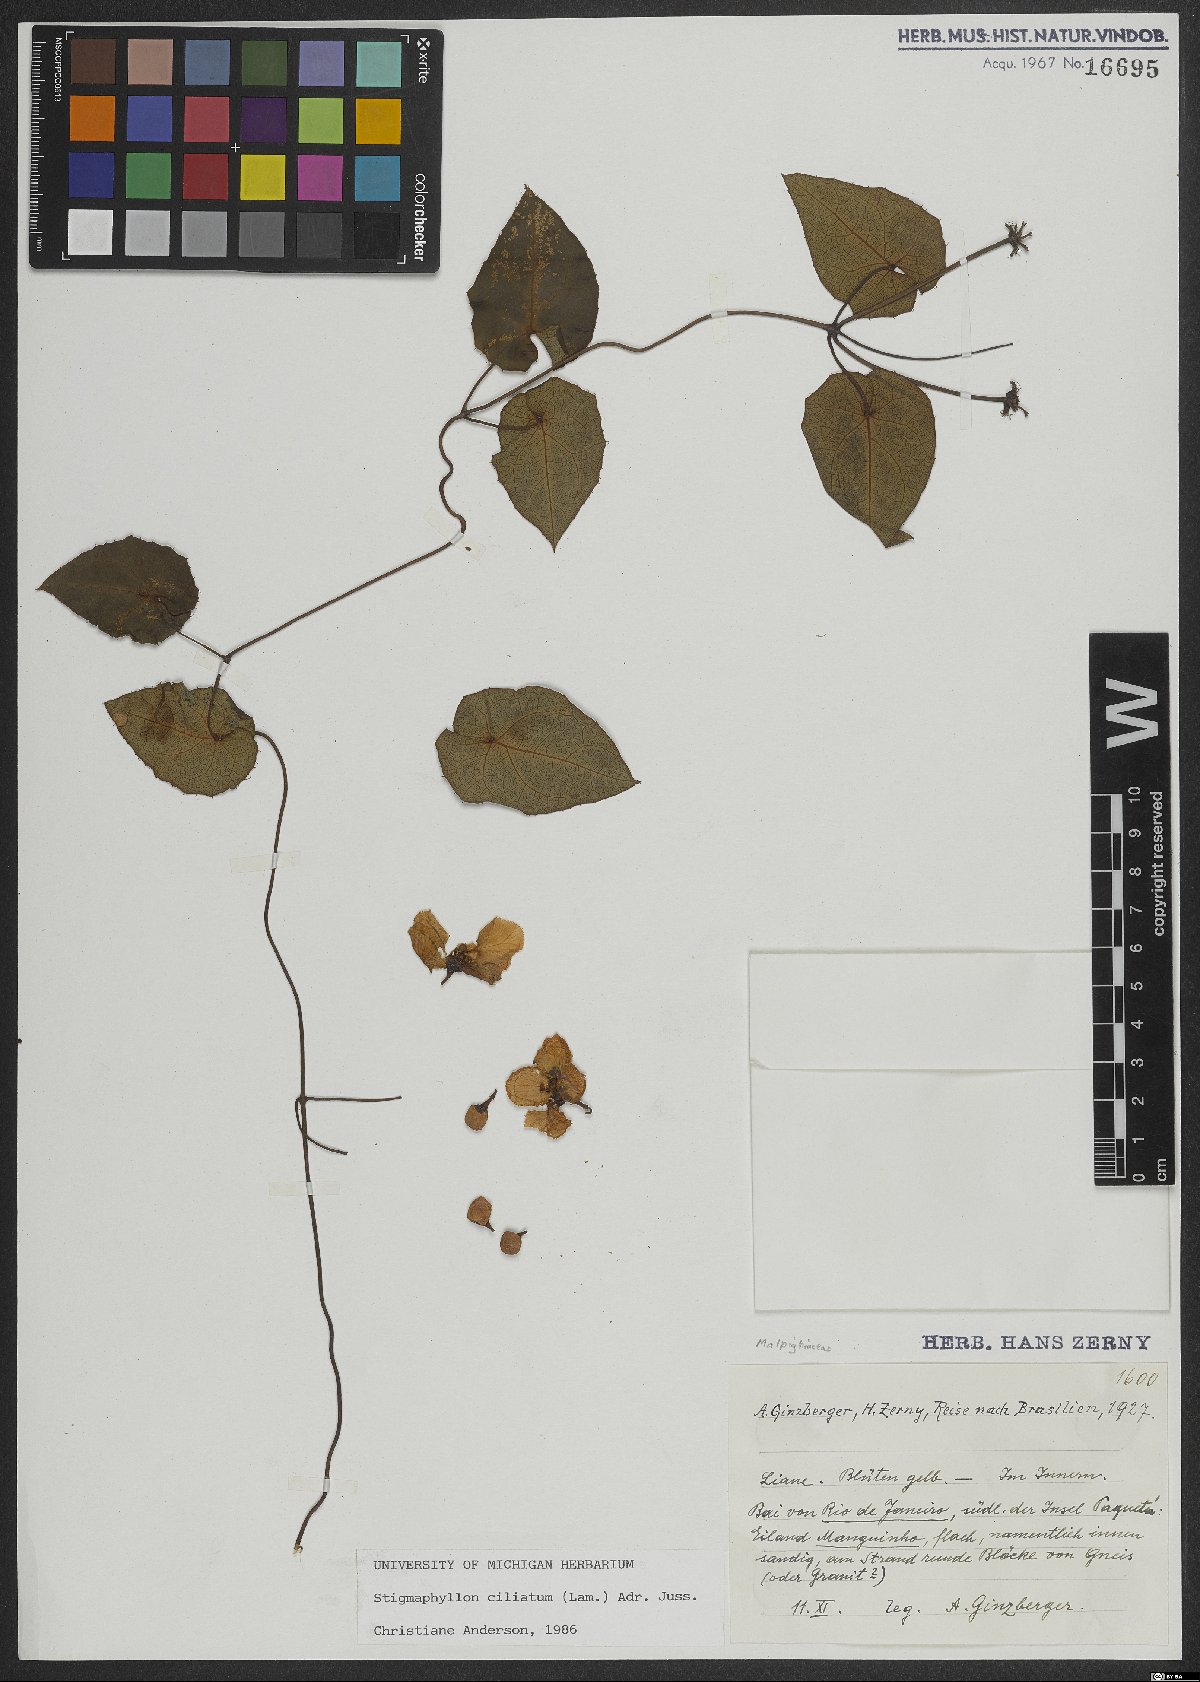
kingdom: Plantae
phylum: Tracheophyta
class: Magnoliopsida
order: Malpighiales
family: Malpighiaceae
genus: Stigmaphyllon
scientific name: Stigmaphyllon ciliatum
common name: Amazonvine
